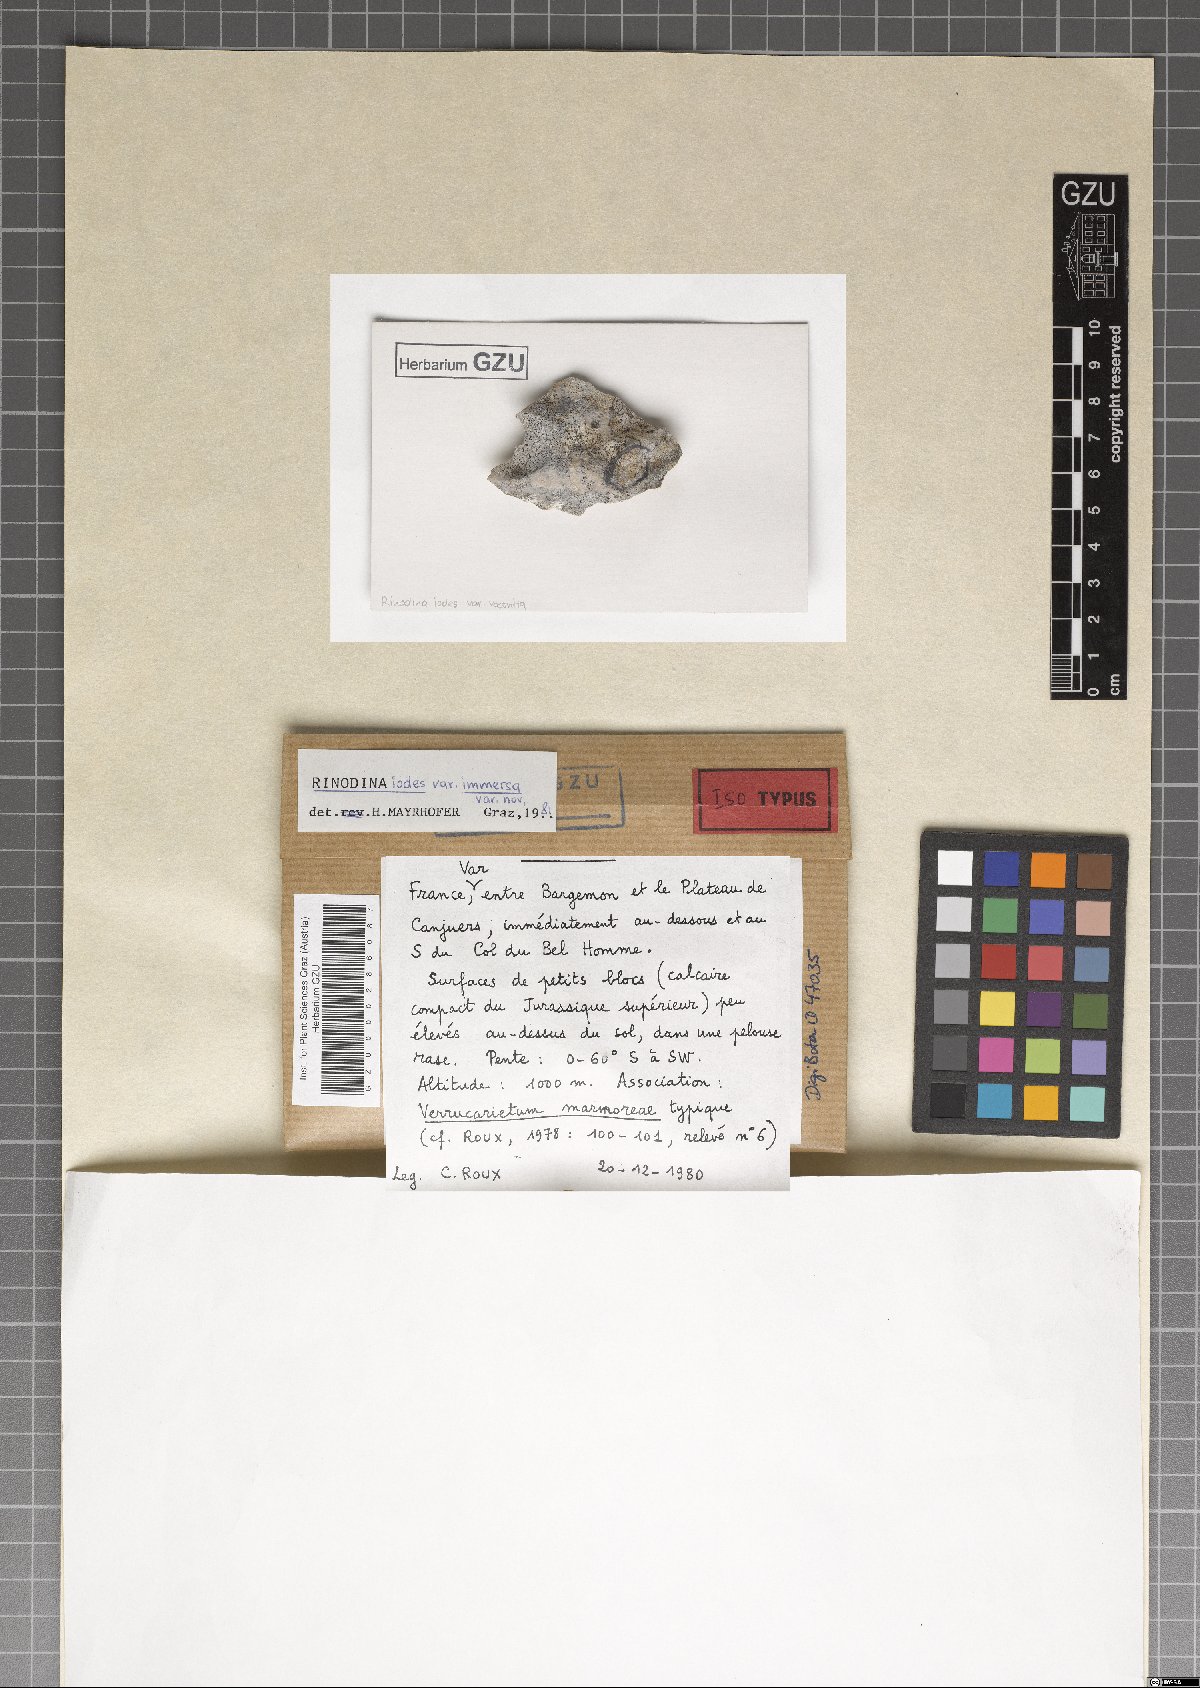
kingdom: Fungi
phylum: Ascomycota
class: Lecanoromycetes
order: Caliciales
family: Physciaceae
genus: Kudratovia
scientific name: Kudratovia luridata
